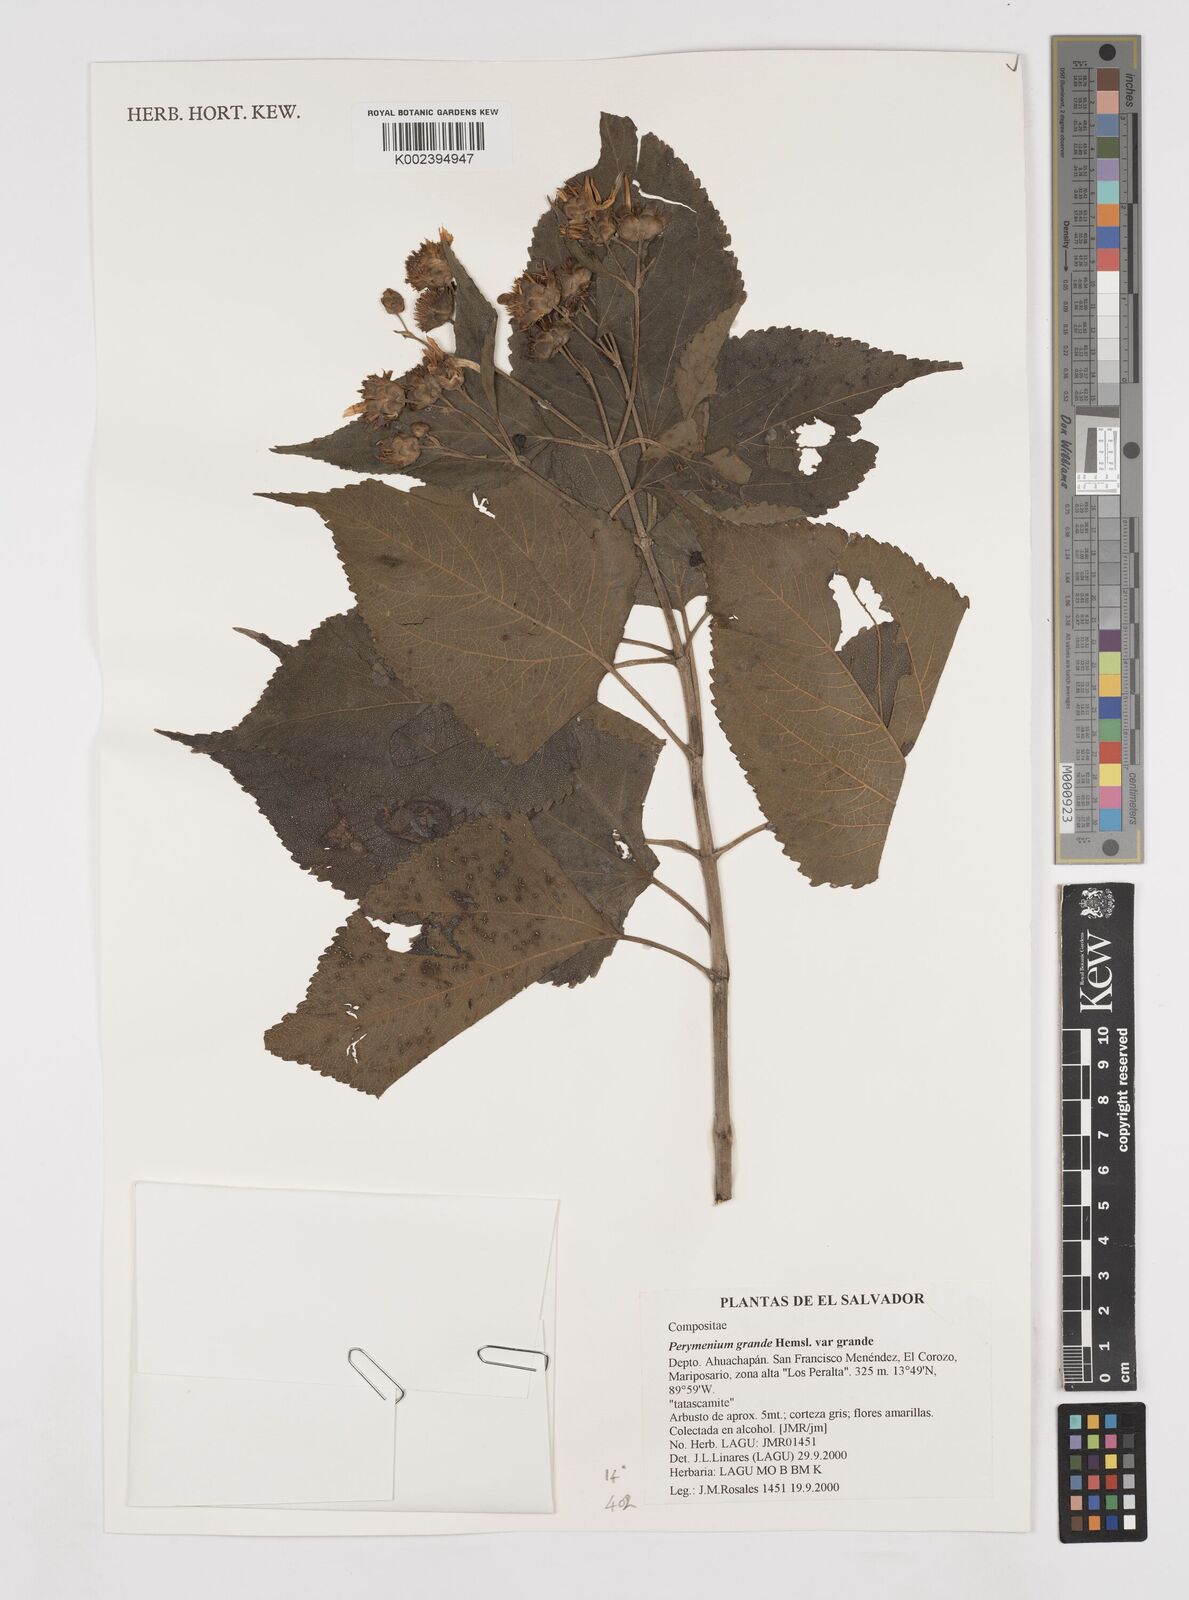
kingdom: Plantae
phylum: Tracheophyta
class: Magnoliopsida
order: Asterales
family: Asteraceae
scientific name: Asteraceae
